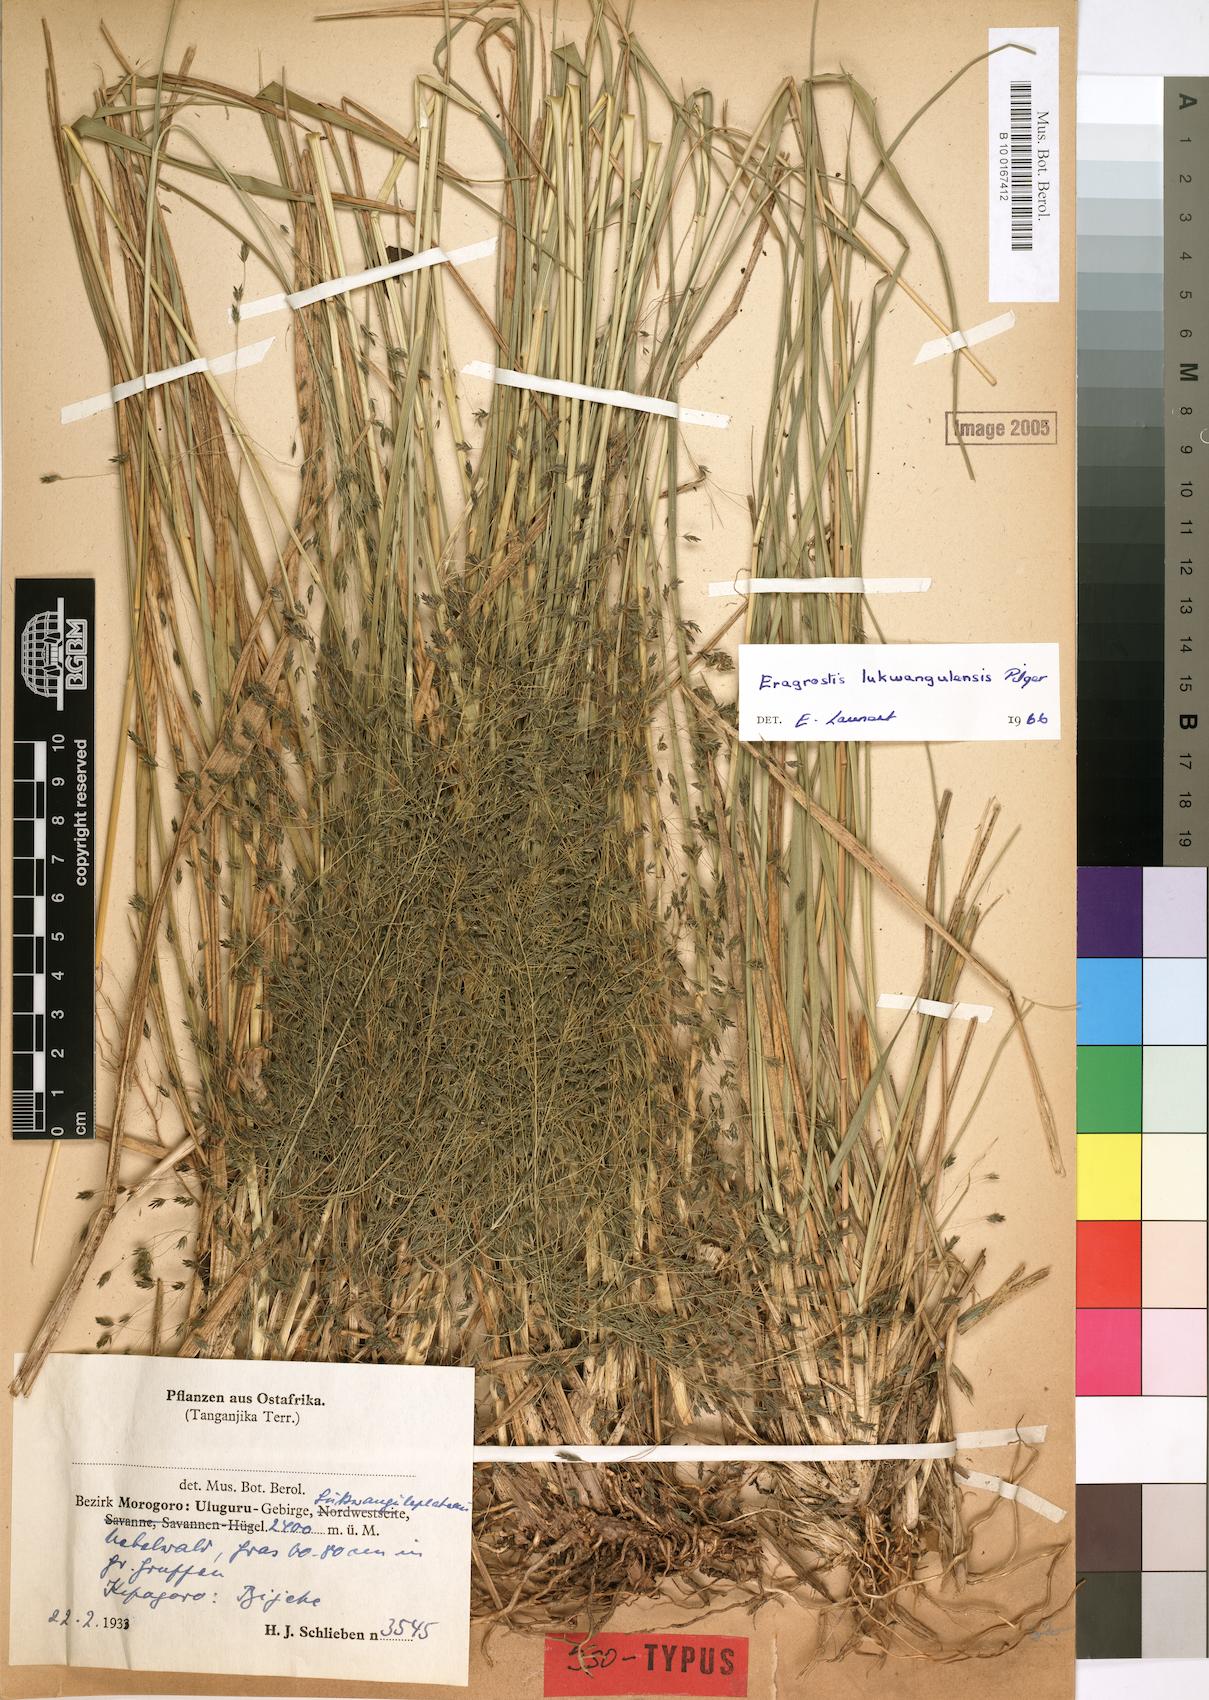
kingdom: Plantae
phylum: Tracheophyta
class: Liliopsida
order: Poales
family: Poaceae
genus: Eragrostis
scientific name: Eragrostis homblei
